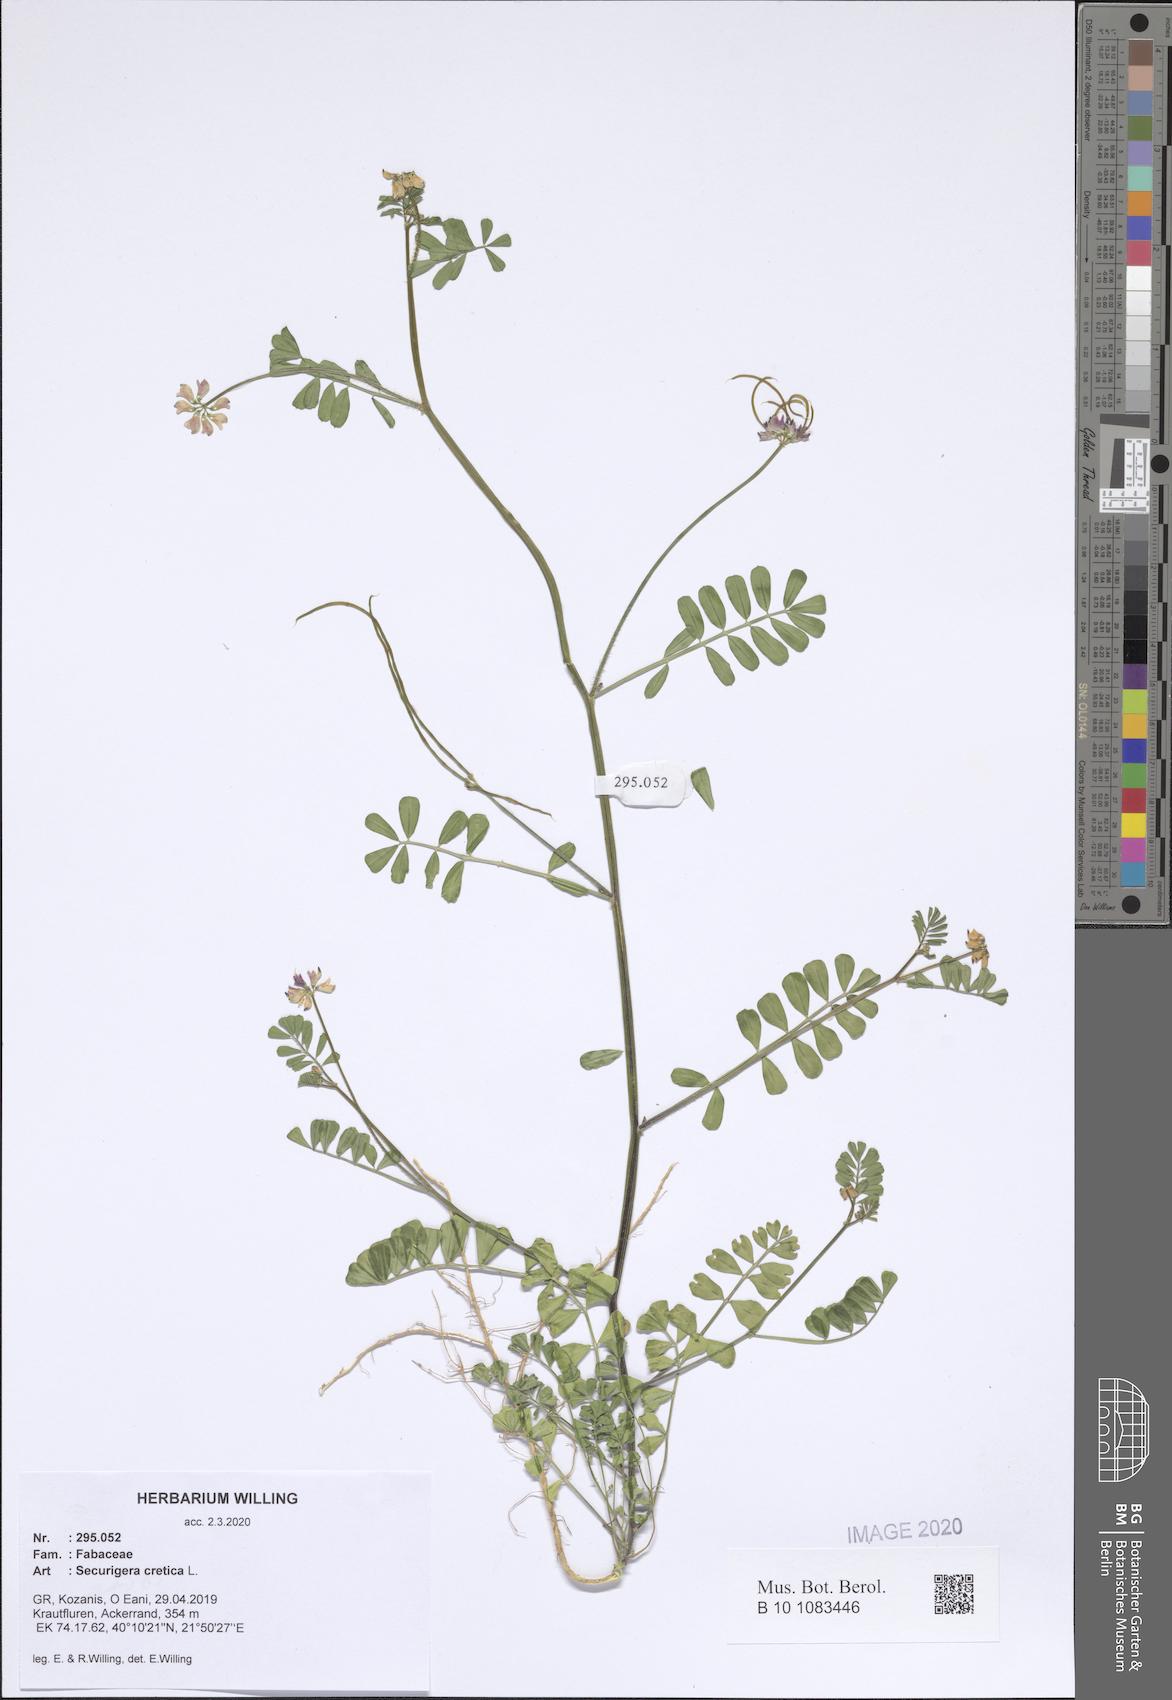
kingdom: Plantae
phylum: Tracheophyta
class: Magnoliopsida
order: Fabales
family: Fabaceae
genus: Coronilla
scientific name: Coronilla cretica
